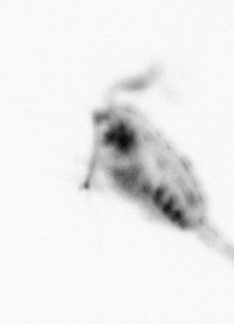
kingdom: Animalia
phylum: Arthropoda
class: Copepoda
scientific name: Copepoda
